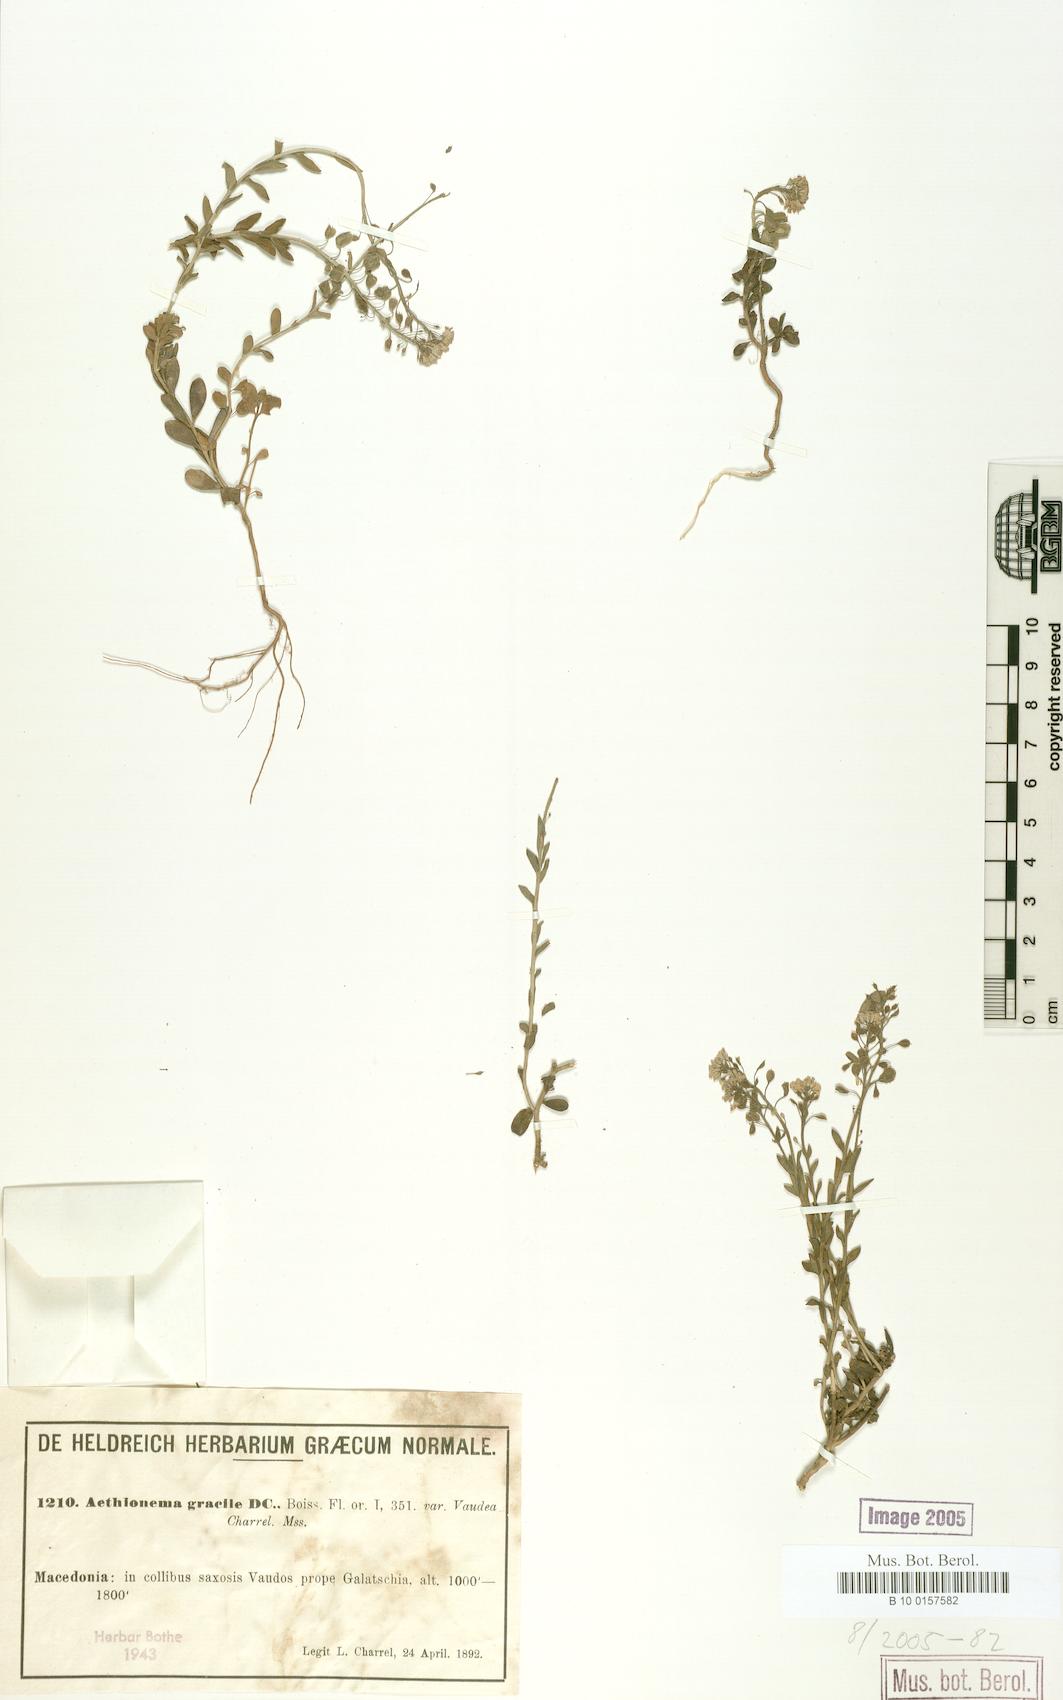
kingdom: Plantae
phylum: Tracheophyta
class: Magnoliopsida
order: Brassicales
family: Brassicaceae
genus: Aethionema
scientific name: Aethionema saxatile
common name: Burnt candytuft
